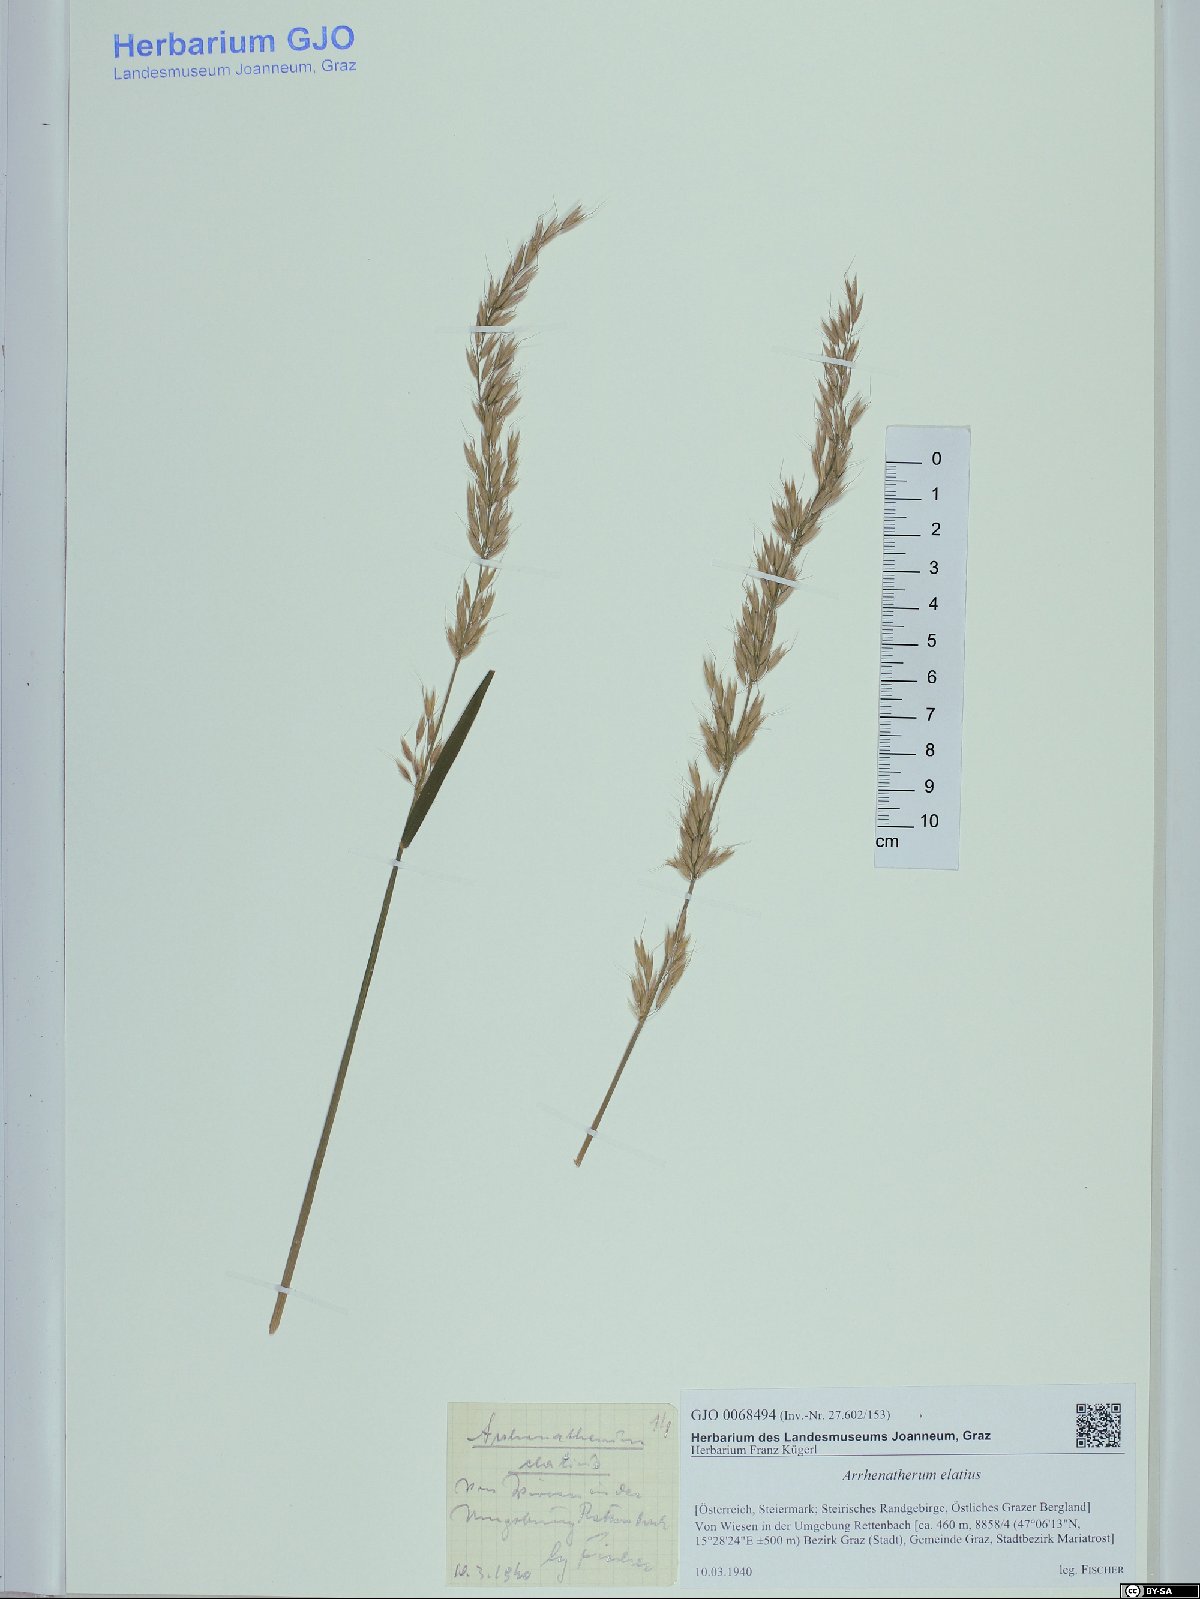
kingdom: Plantae
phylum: Tracheophyta
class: Liliopsida
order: Poales
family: Poaceae
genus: Arrhenatherum
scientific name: Arrhenatherum elatius
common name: Tall oatgrass
